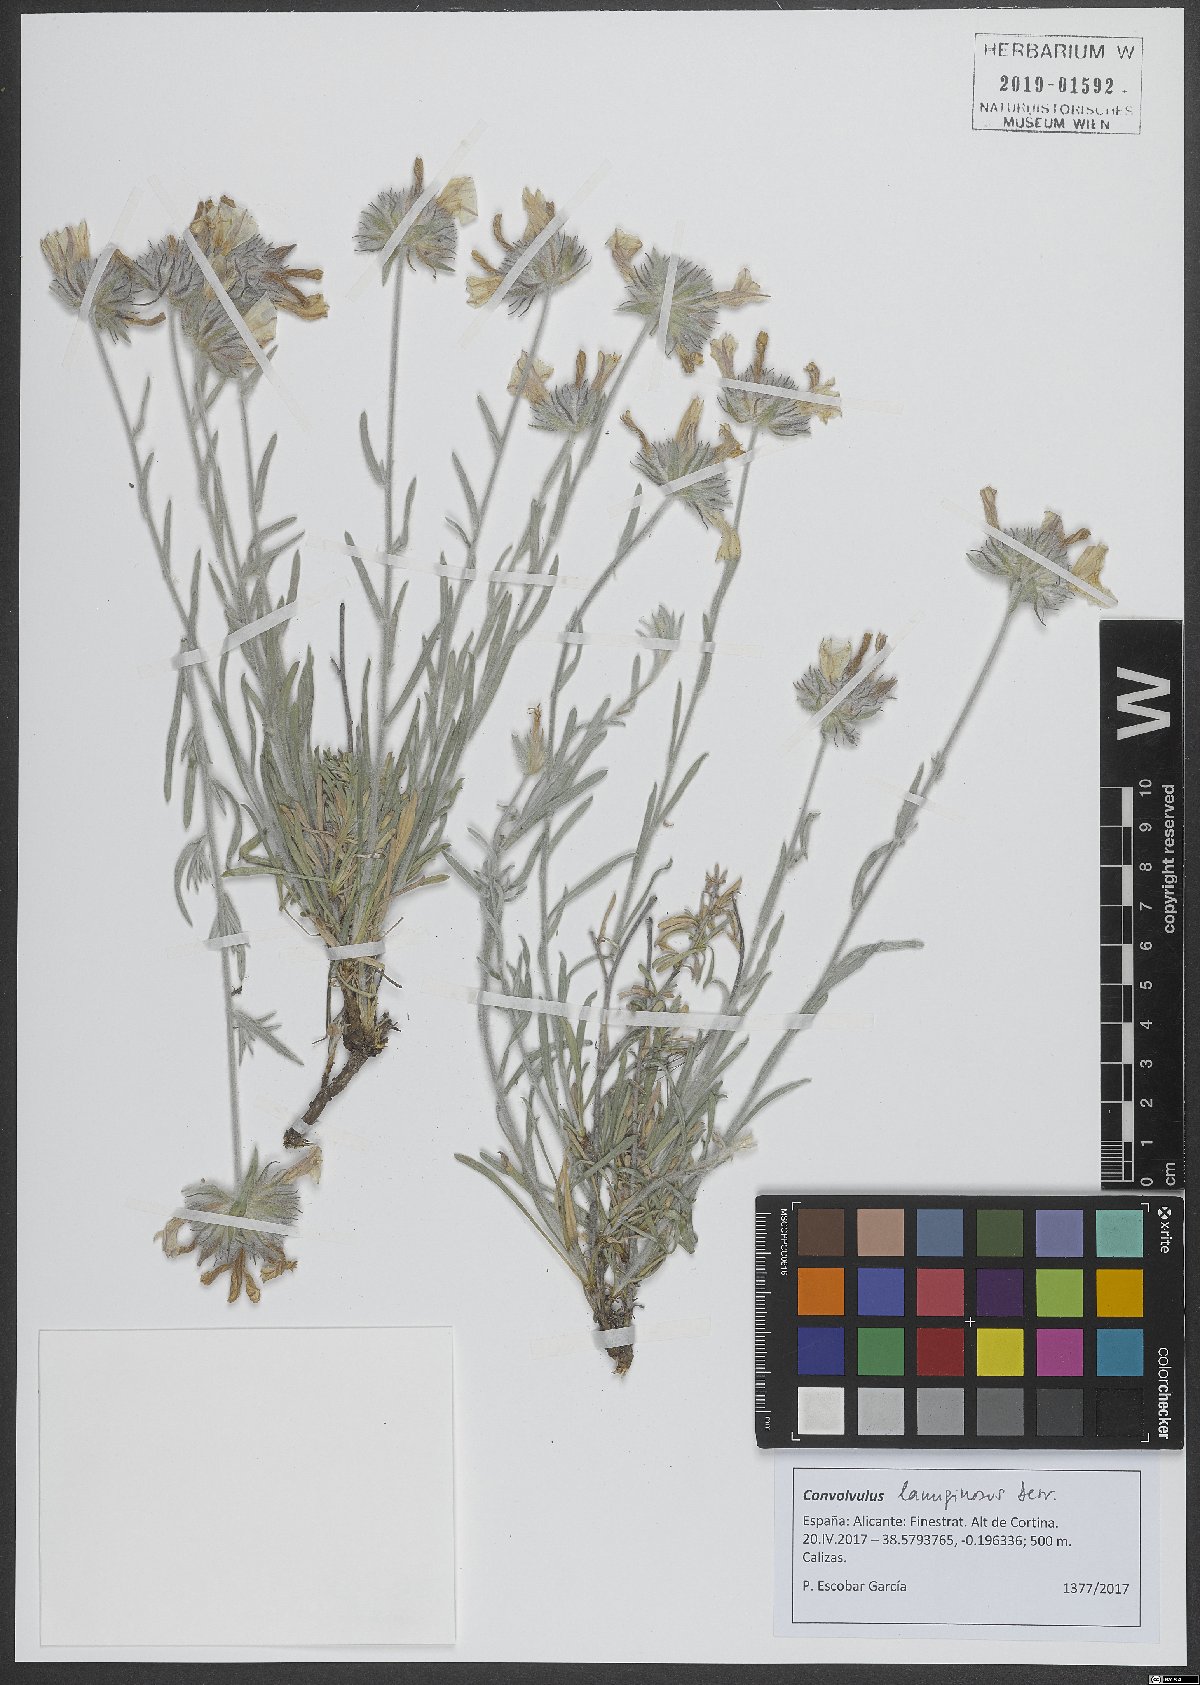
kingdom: Plantae
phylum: Tracheophyta
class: Magnoliopsida
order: Solanales
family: Convolvulaceae
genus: Convolvulus
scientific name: Convolvulus lanuginosus
